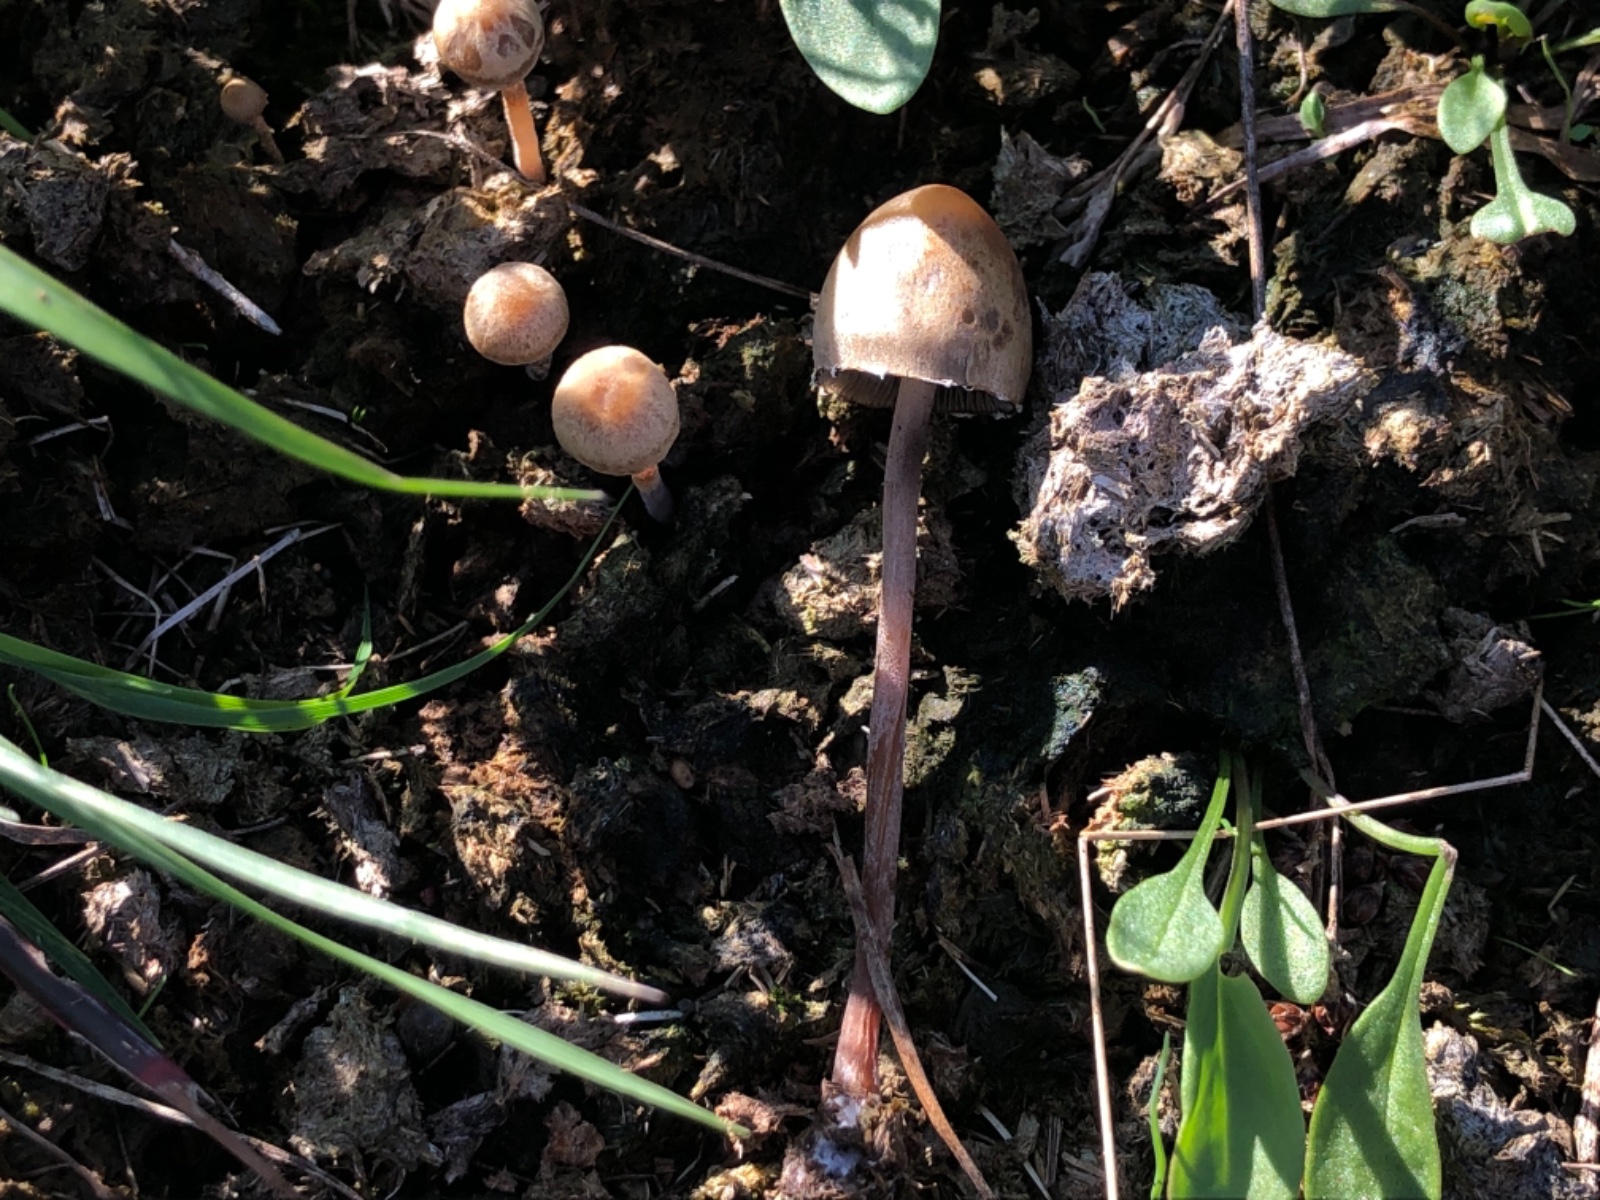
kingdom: Fungi
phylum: Basidiomycota
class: Agaricomycetes
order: Agaricales
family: Bolbitiaceae
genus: Panaeolus
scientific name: Panaeolus papilionaceus
